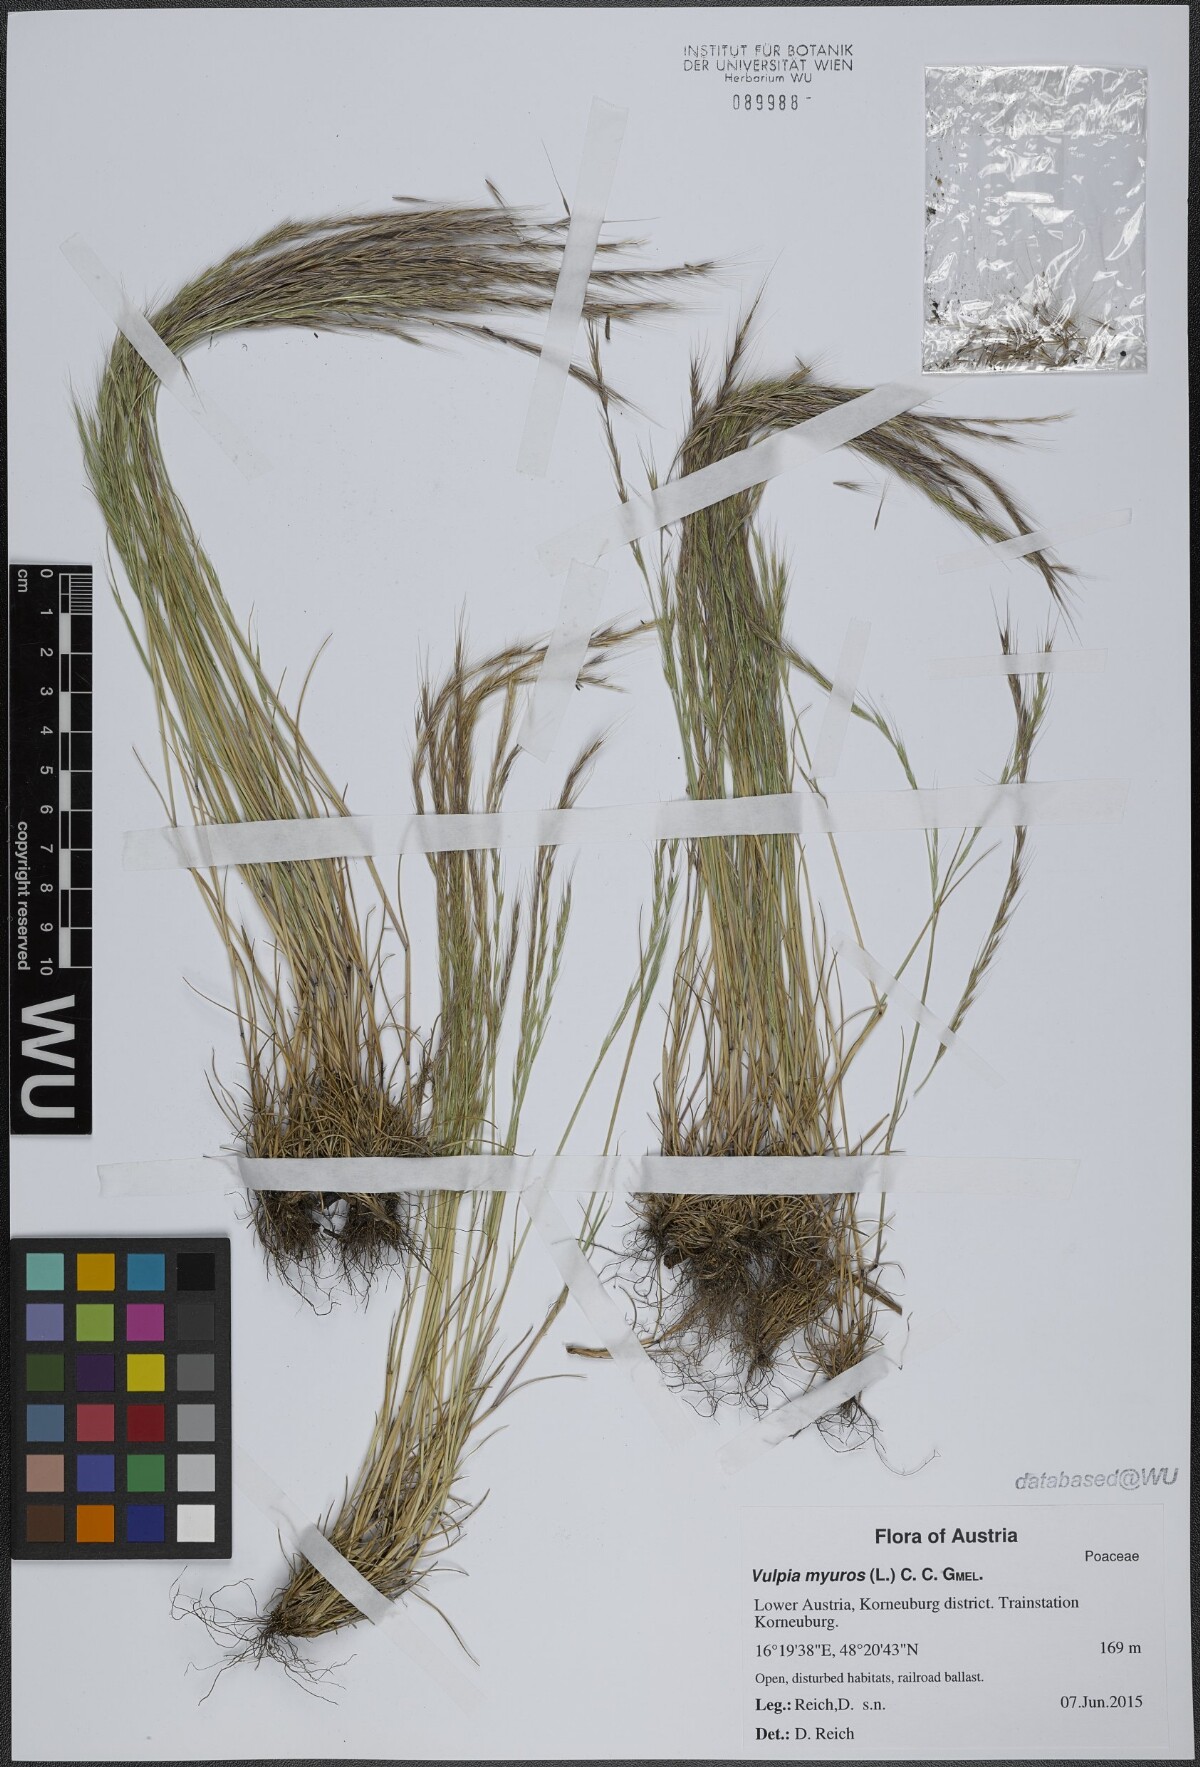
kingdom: Plantae
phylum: Tracheophyta
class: Liliopsida
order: Poales
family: Poaceae
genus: Festuca
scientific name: Festuca myuros
